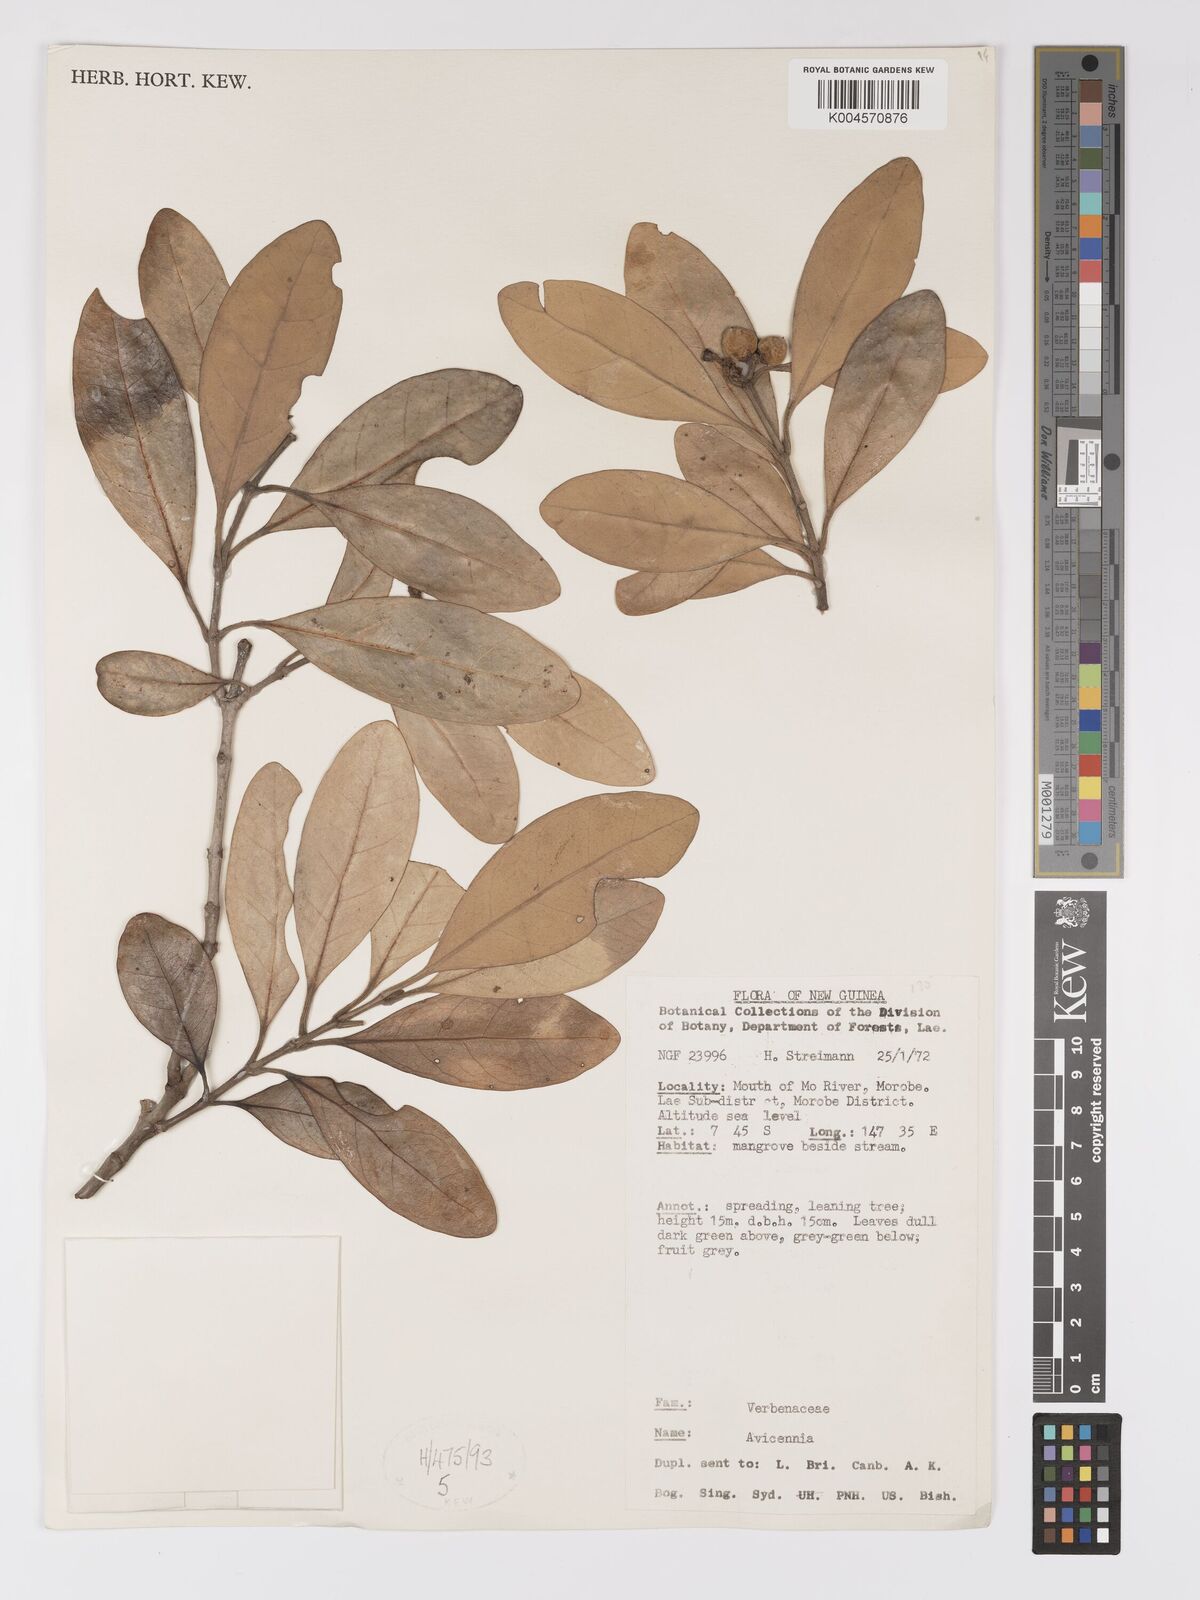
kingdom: Plantae
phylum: Tracheophyta
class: Magnoliopsida
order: Lamiales
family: Acanthaceae
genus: Avicennia
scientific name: Avicennia
